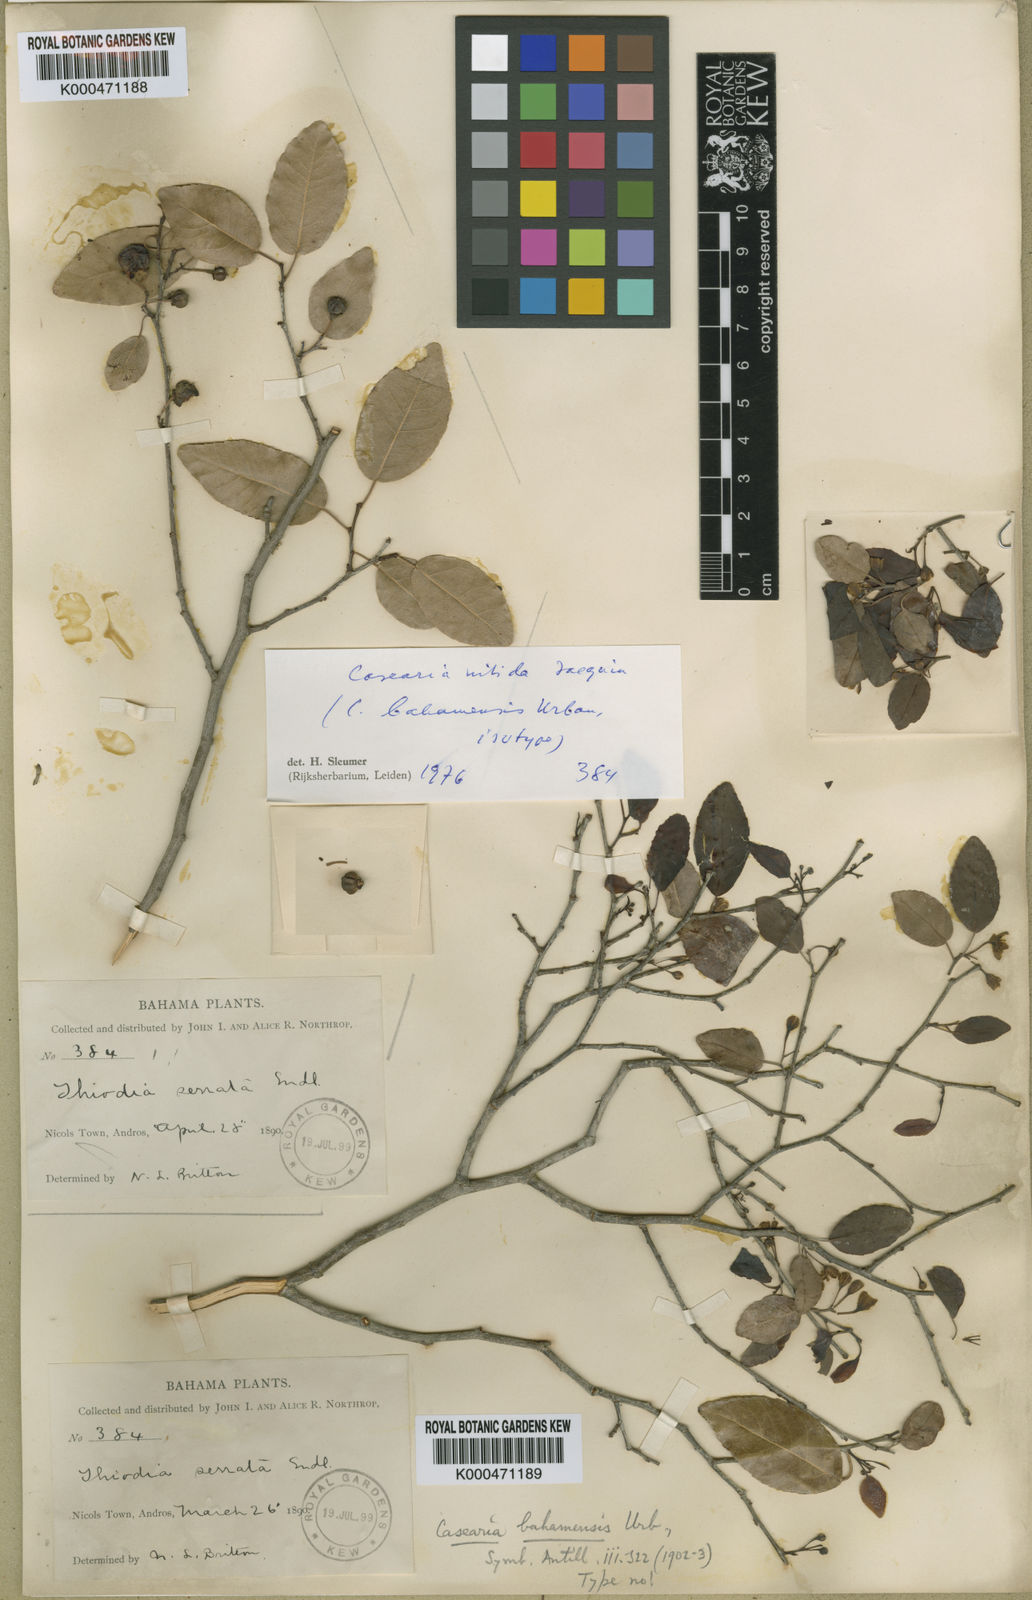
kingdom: Plantae
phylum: Tracheophyta
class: Magnoliopsida
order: Malpighiales
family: Salicaceae
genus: Casearia
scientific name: Casearia nitida
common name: Smooth honeytree
